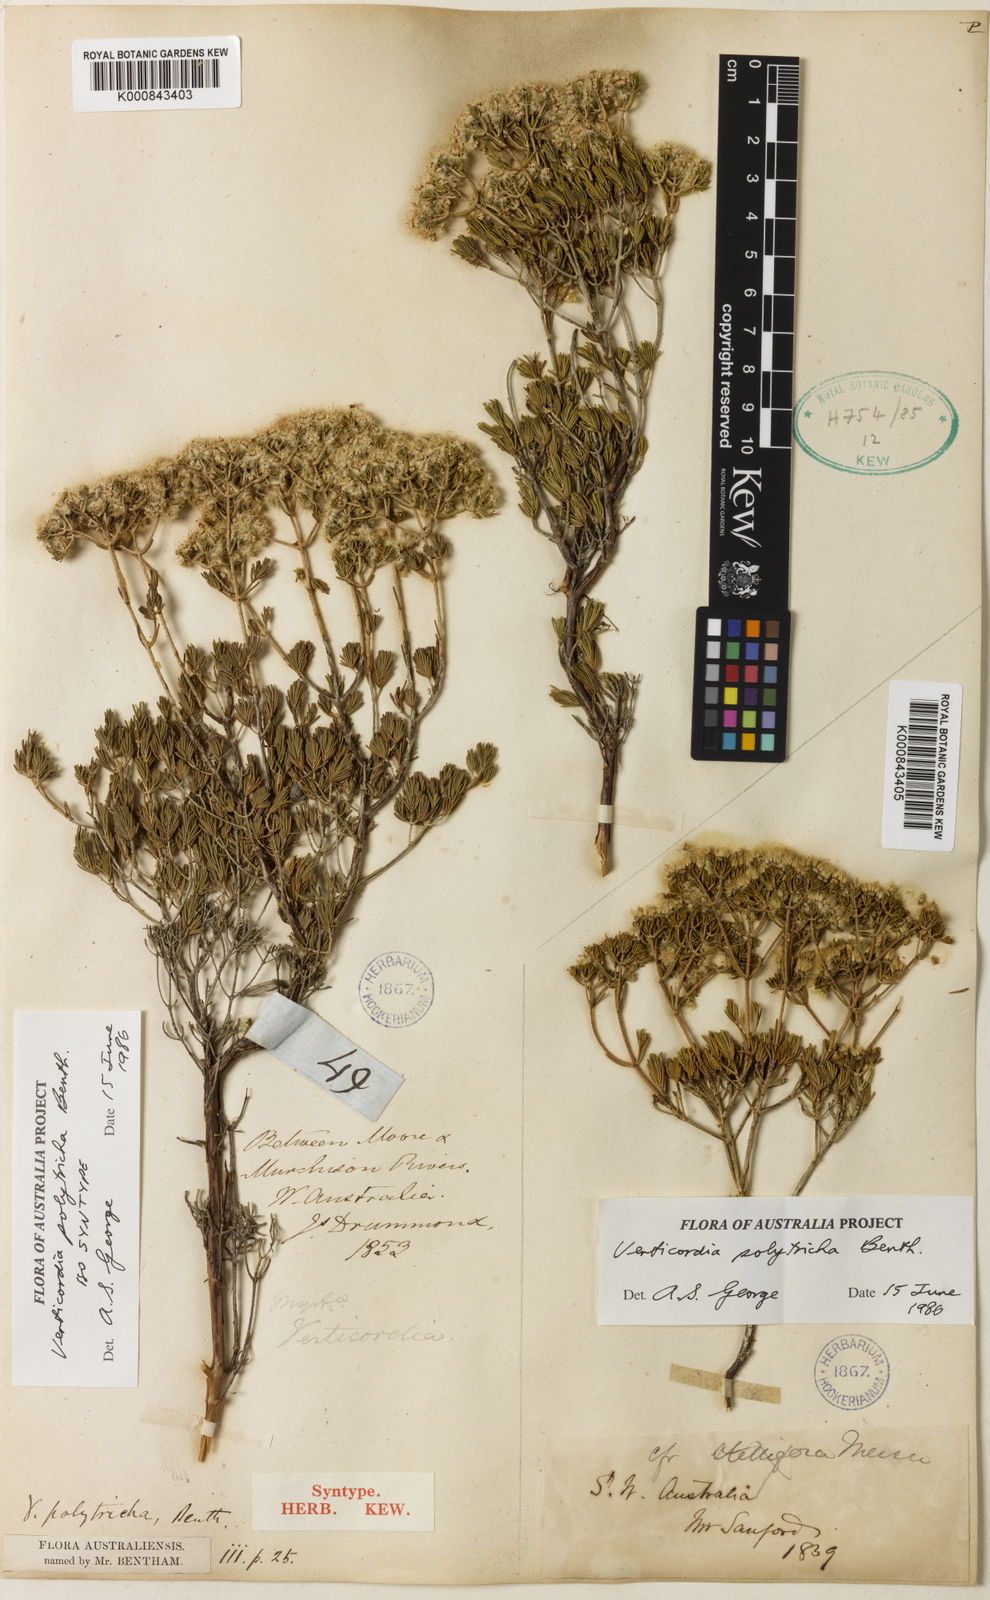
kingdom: Plantae
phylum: Tracheophyta
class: Magnoliopsida
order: Myrtales
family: Myrtaceae
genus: Verticordia
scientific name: Verticordia polytricha
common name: Northern-cauliflower
